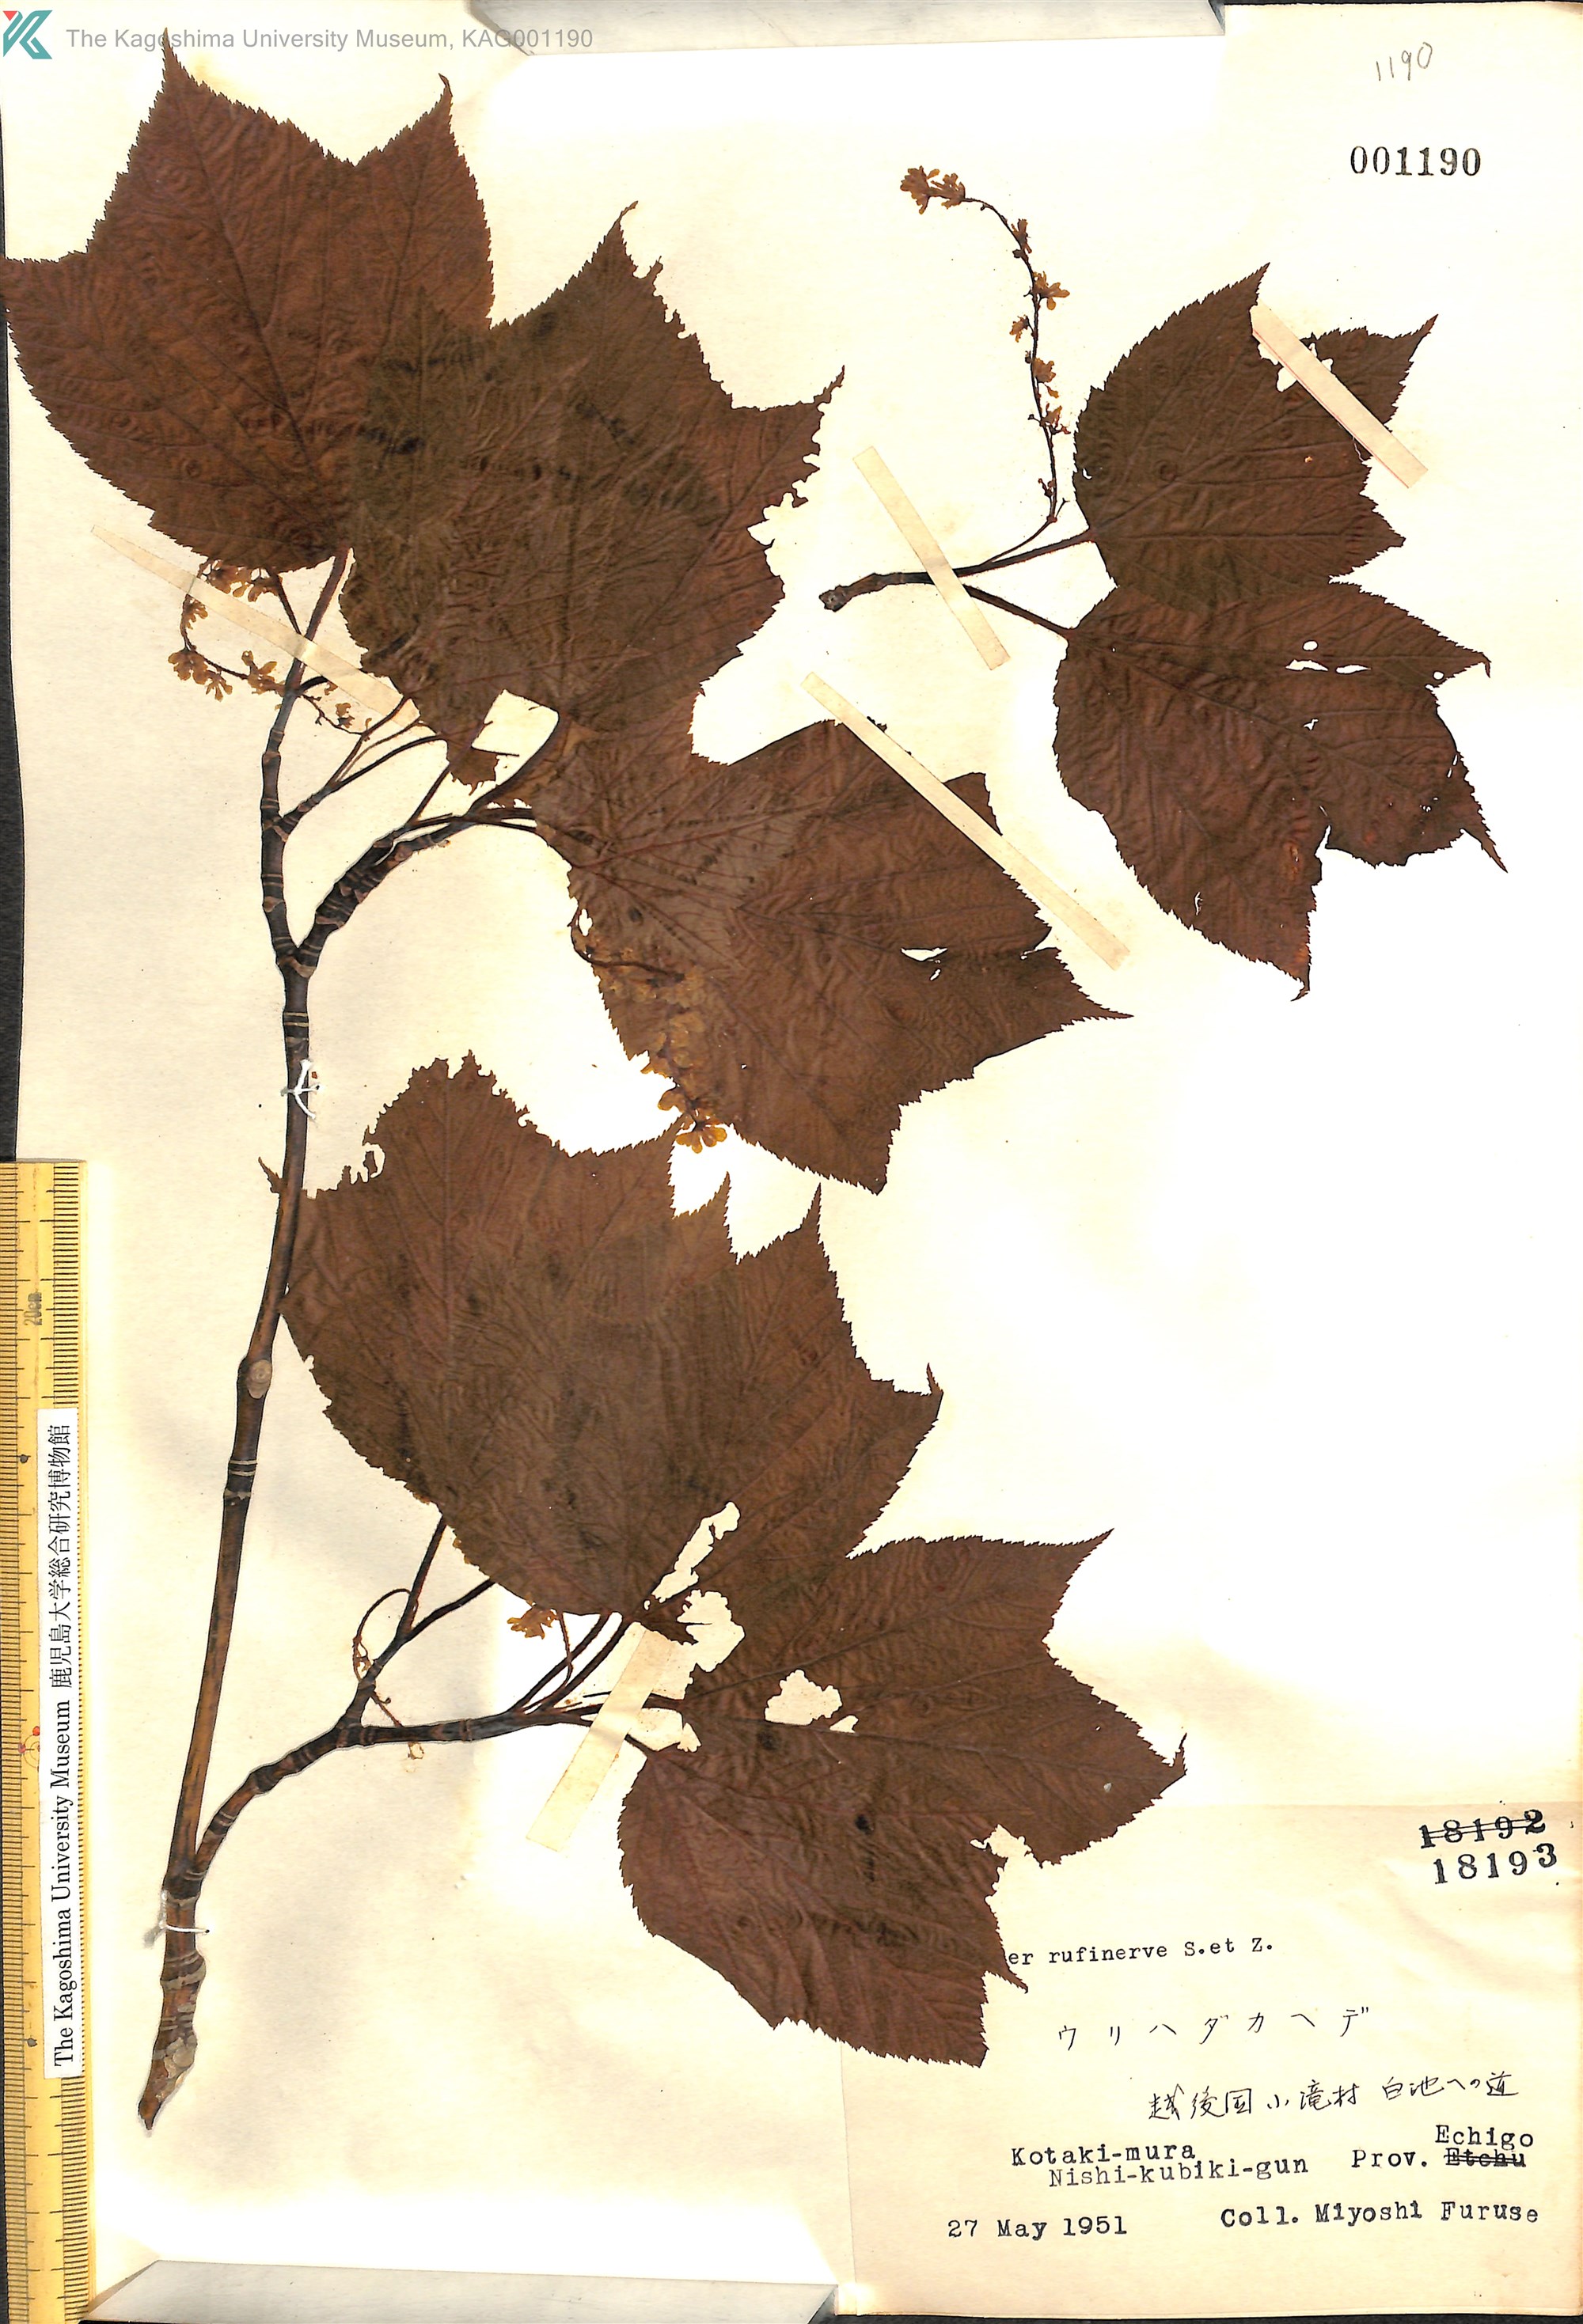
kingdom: Plantae
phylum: Tracheophyta
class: Magnoliopsida
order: Sapindales
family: Sapindaceae
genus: Acer
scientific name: Acer rufinerve
